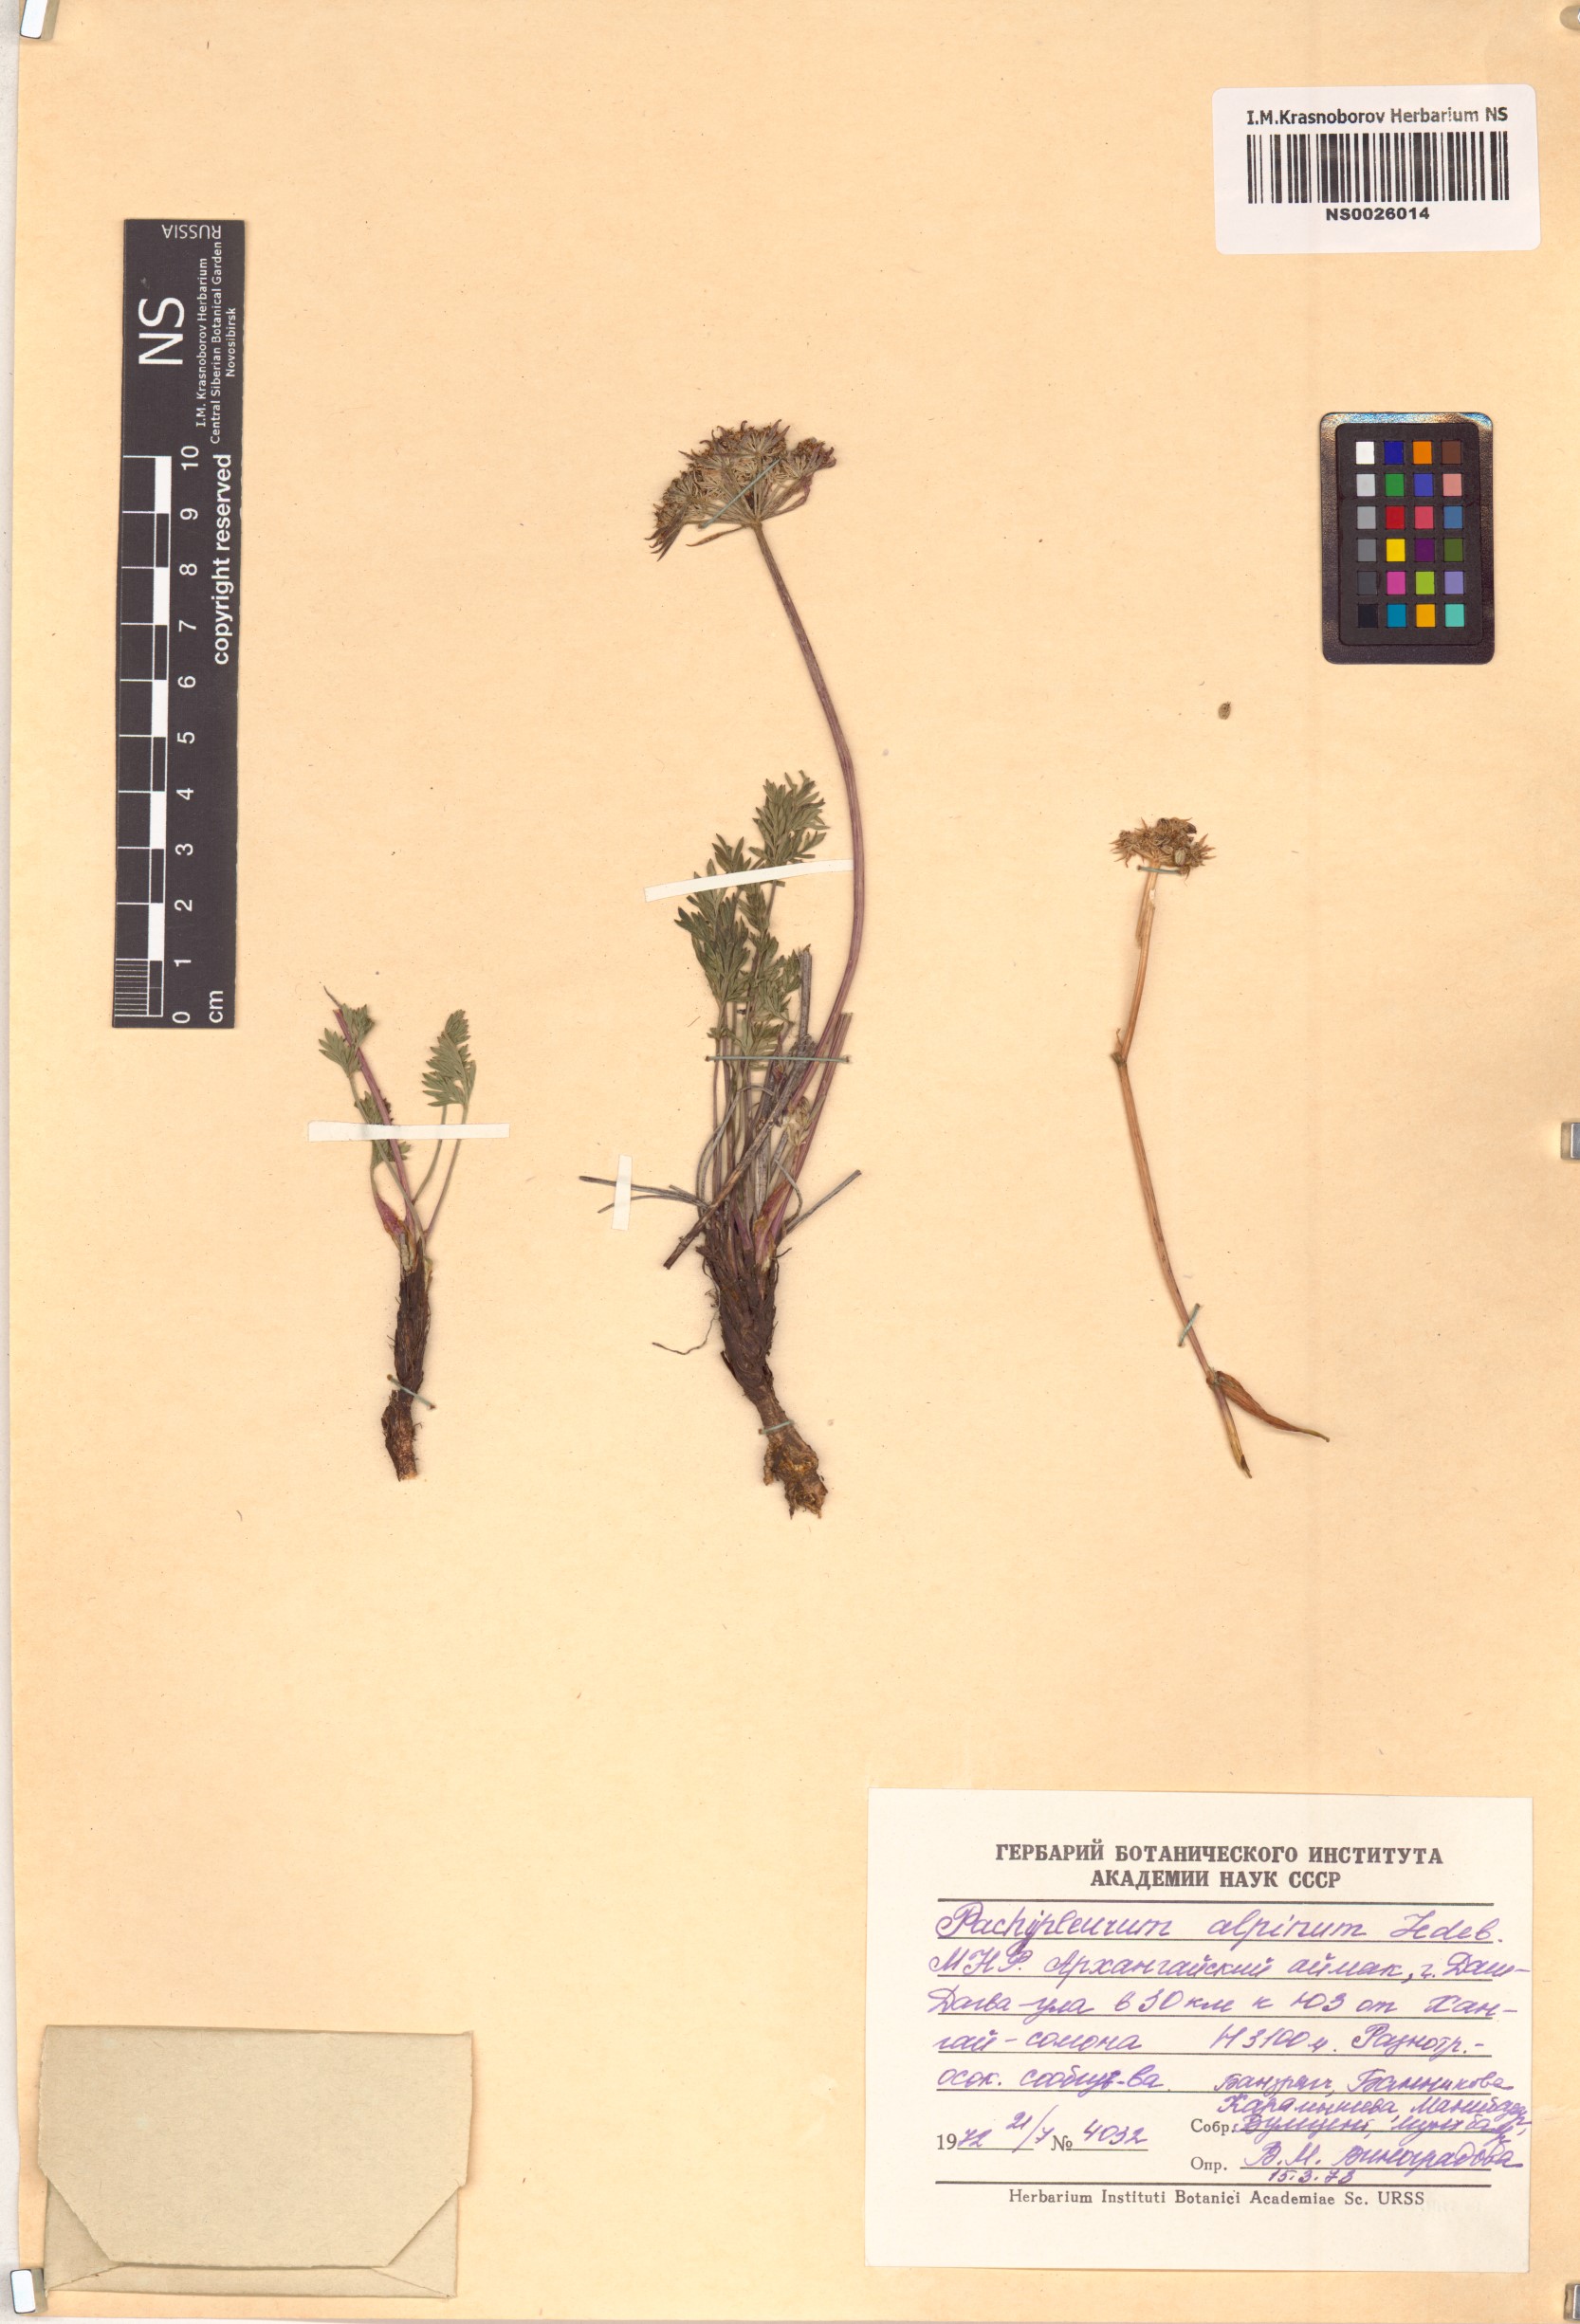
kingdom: Plantae
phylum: Tracheophyta
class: Magnoliopsida
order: Apiales
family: Apiaceae
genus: Pachypleurum
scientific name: Pachypleurum mutellinoides
